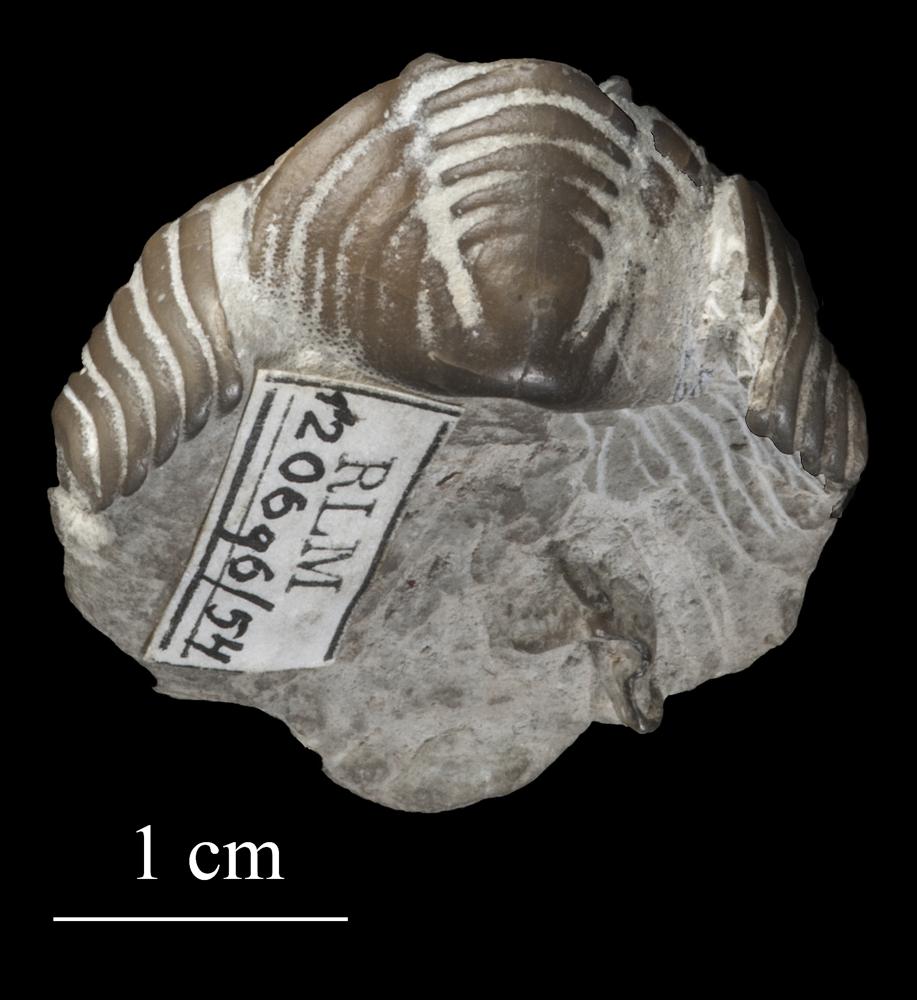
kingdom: Animalia
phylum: Arthropoda
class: Trilobita
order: Phacopida
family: Calymenidae
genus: Calymene
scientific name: Calymene
